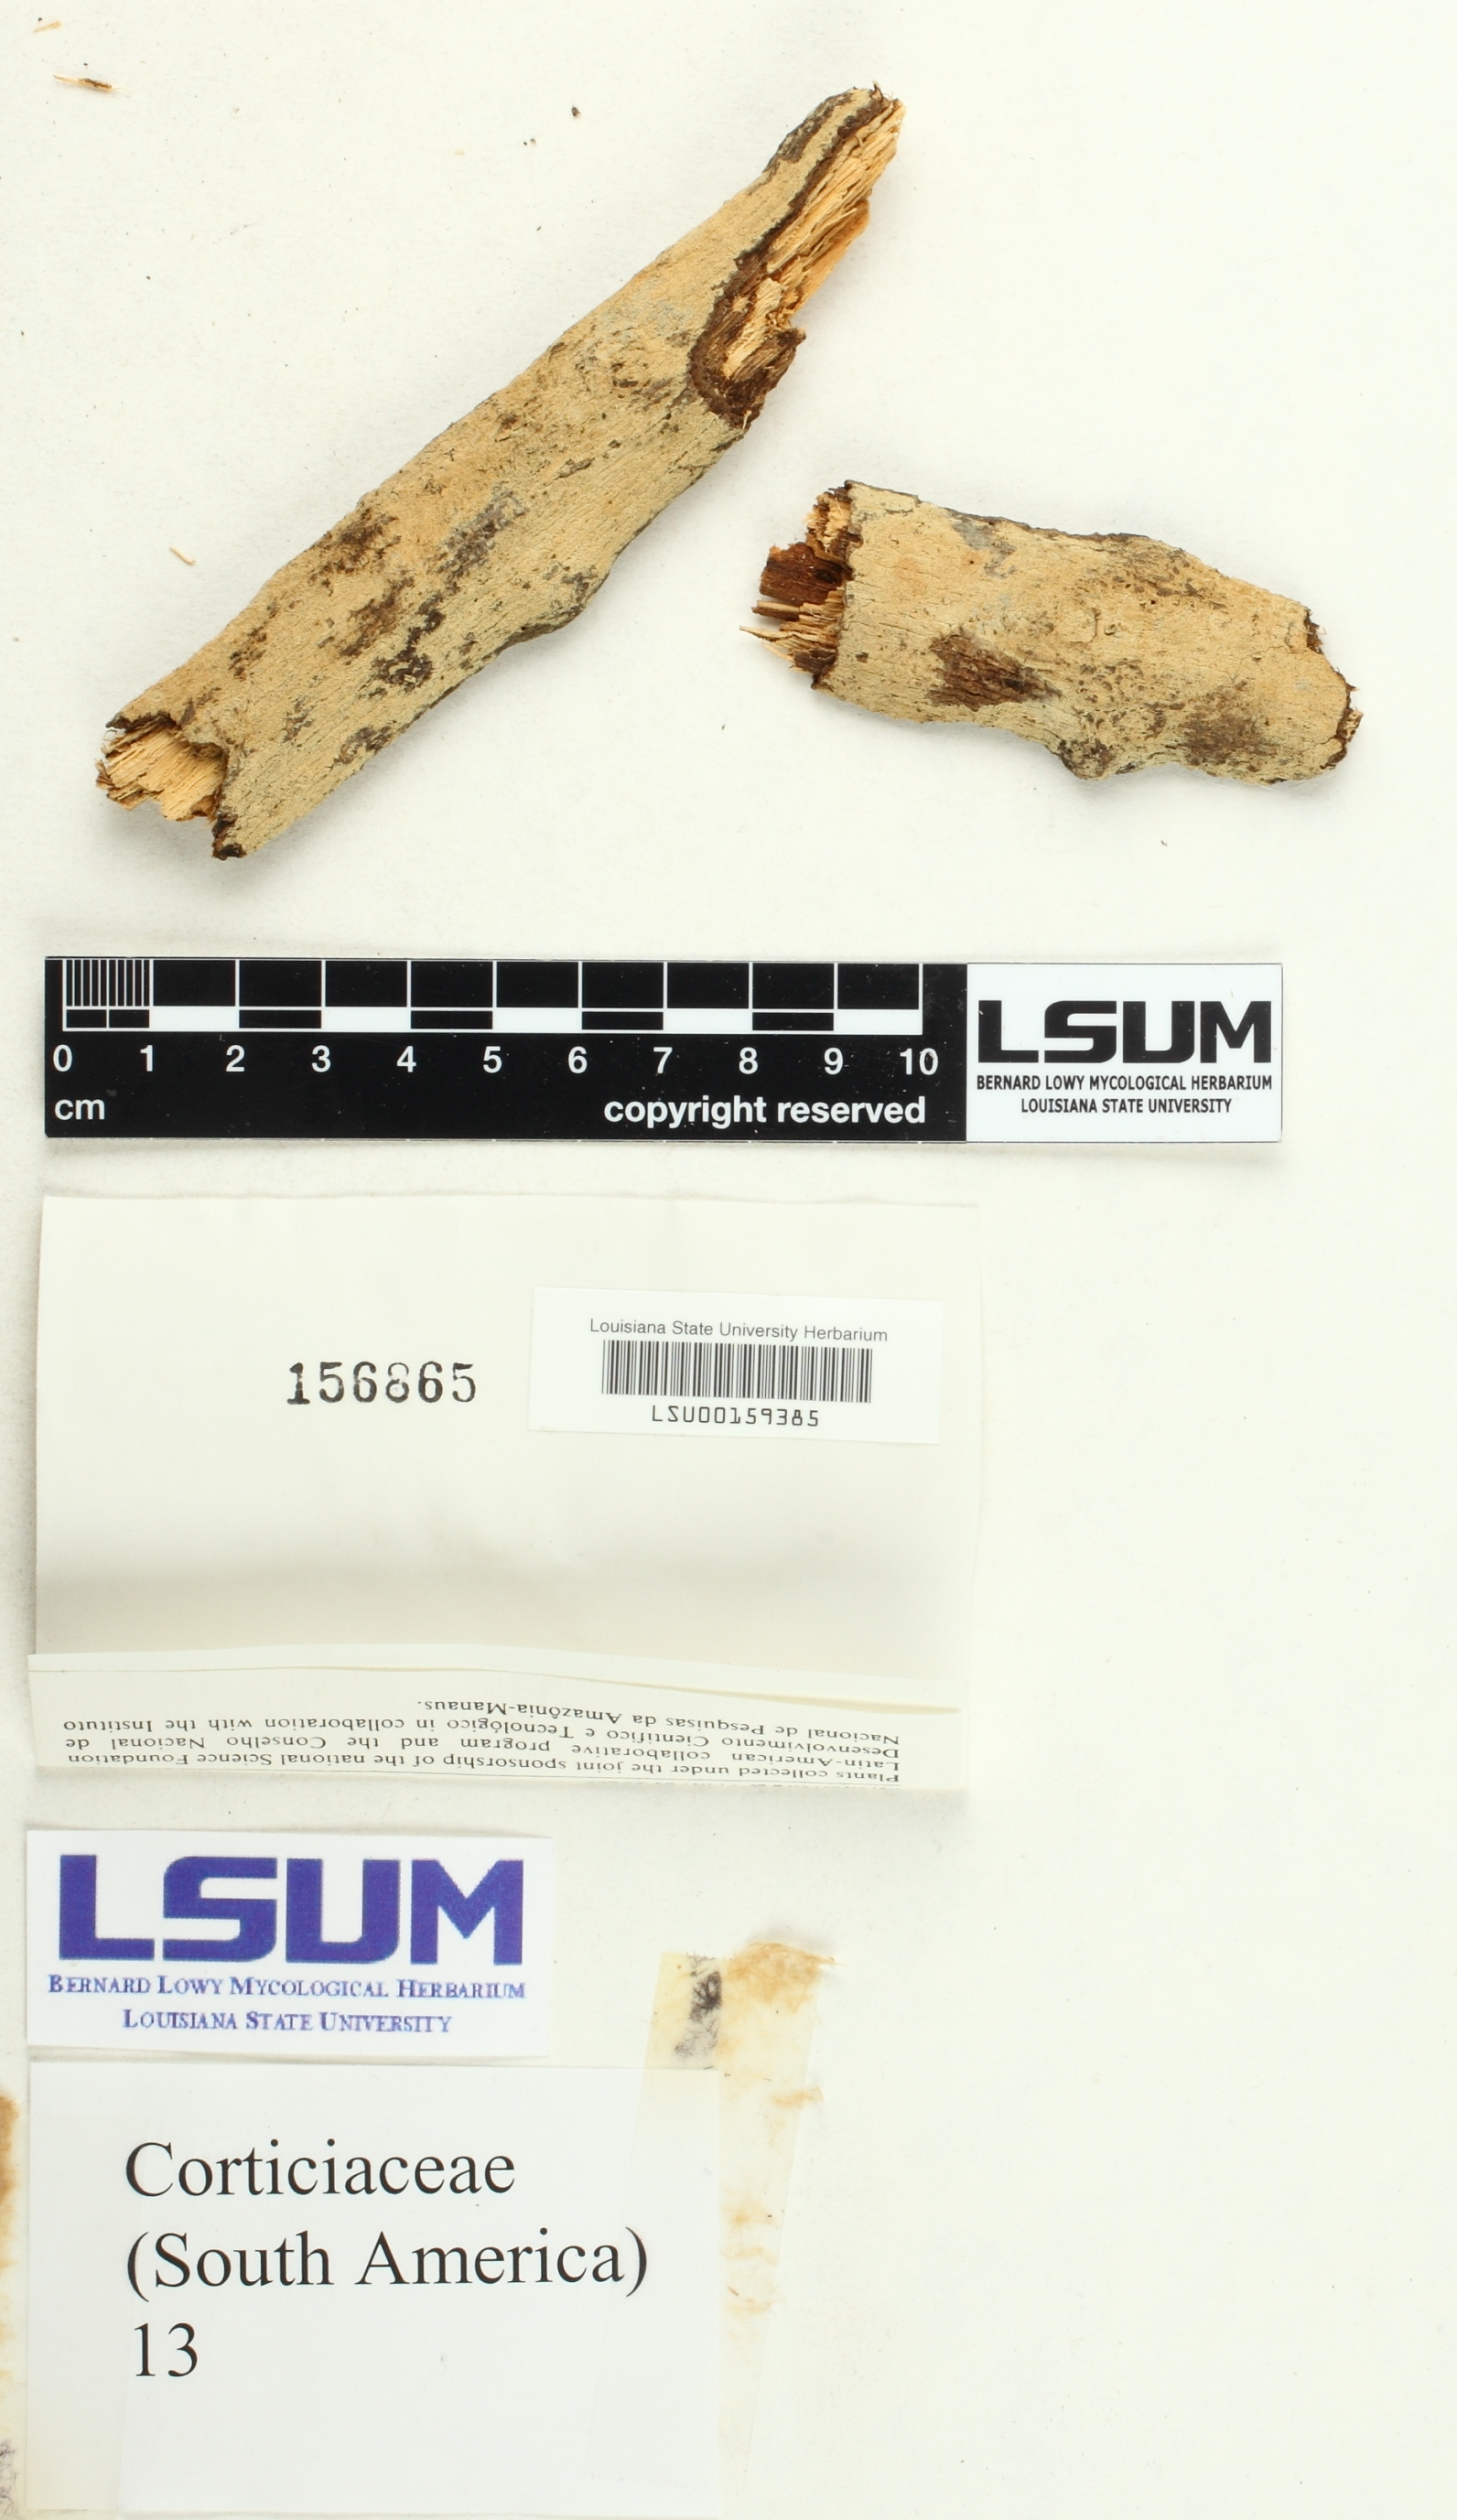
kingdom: Fungi
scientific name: Fungi
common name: Fungi
